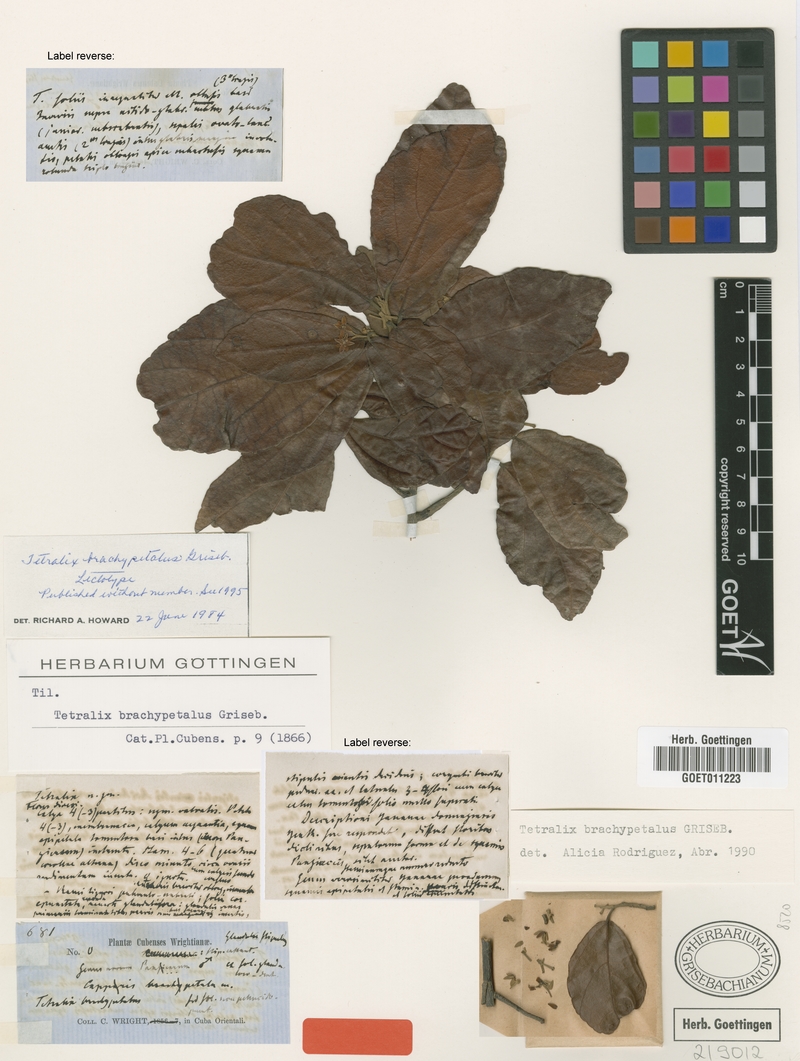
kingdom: Plantae
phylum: Tracheophyta
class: Magnoliopsida
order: Malvales
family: Malvaceae
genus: Tetralix
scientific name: Tetralix brachypetalus
